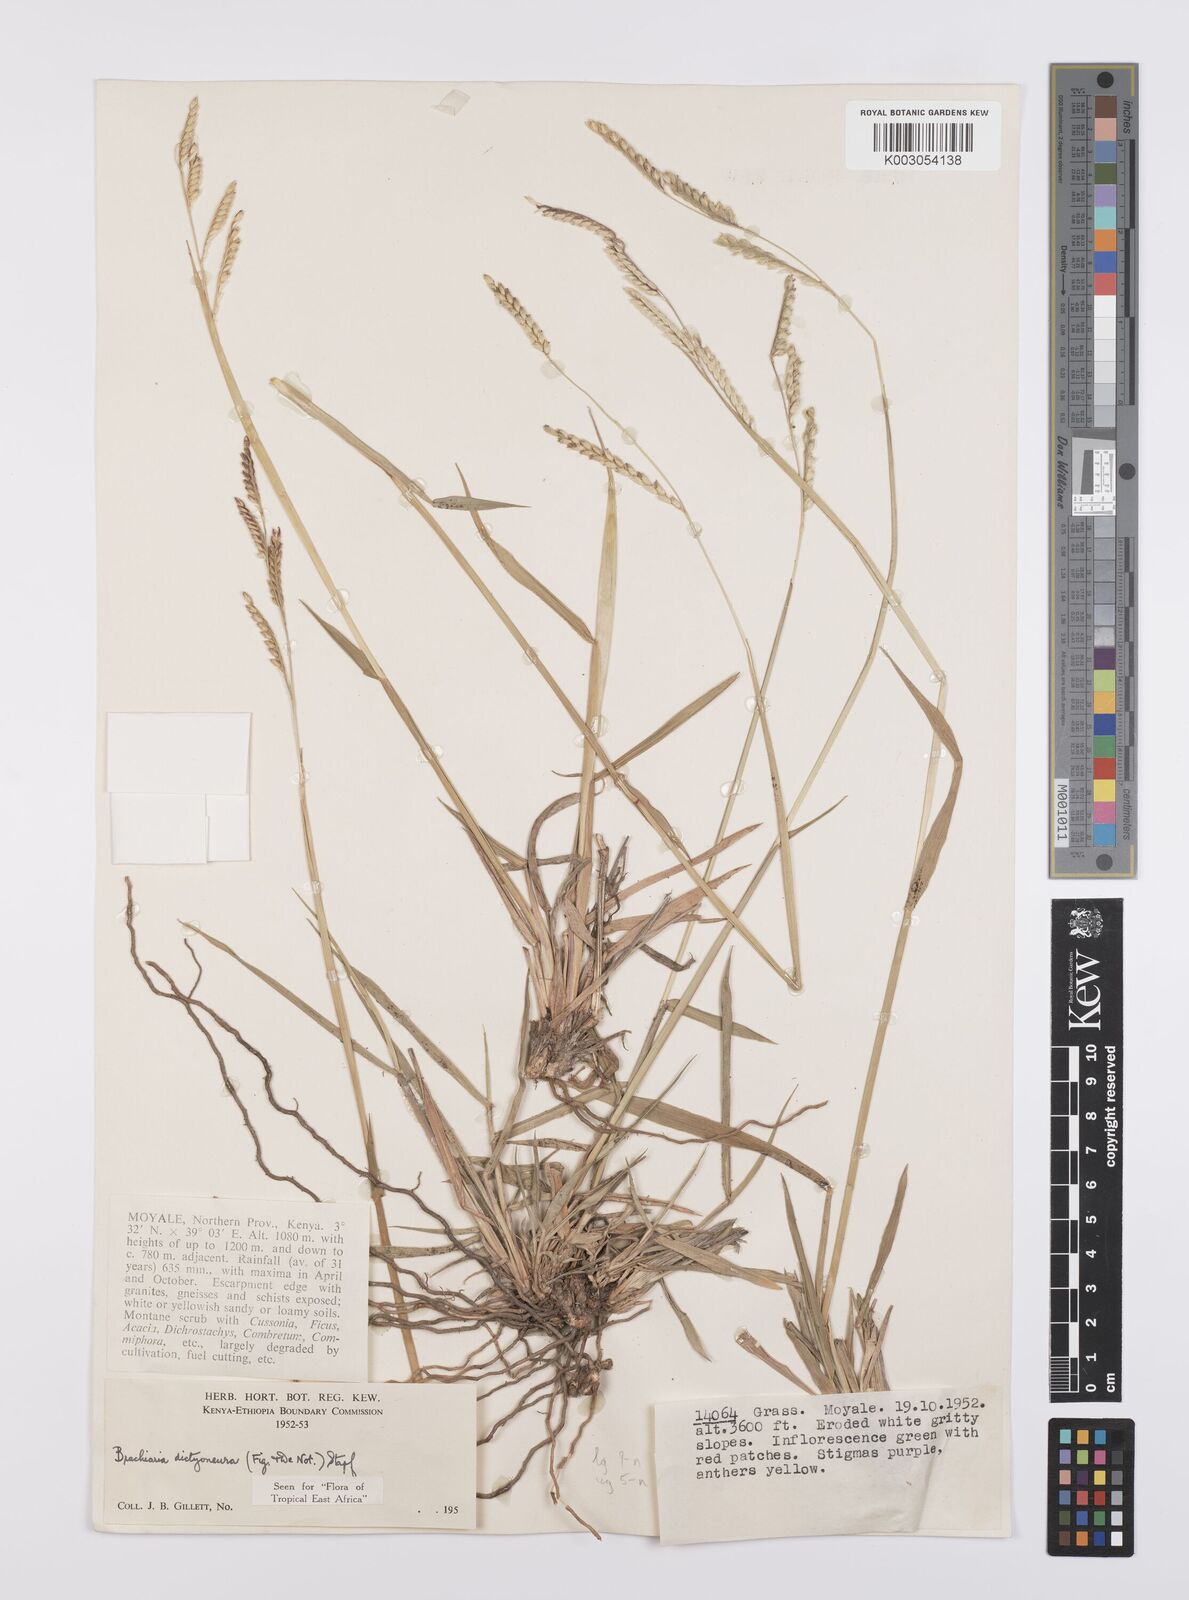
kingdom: Plantae
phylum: Tracheophyta
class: Liliopsida
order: Poales
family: Poaceae
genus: Urochloa
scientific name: Urochloa dictyoneura
